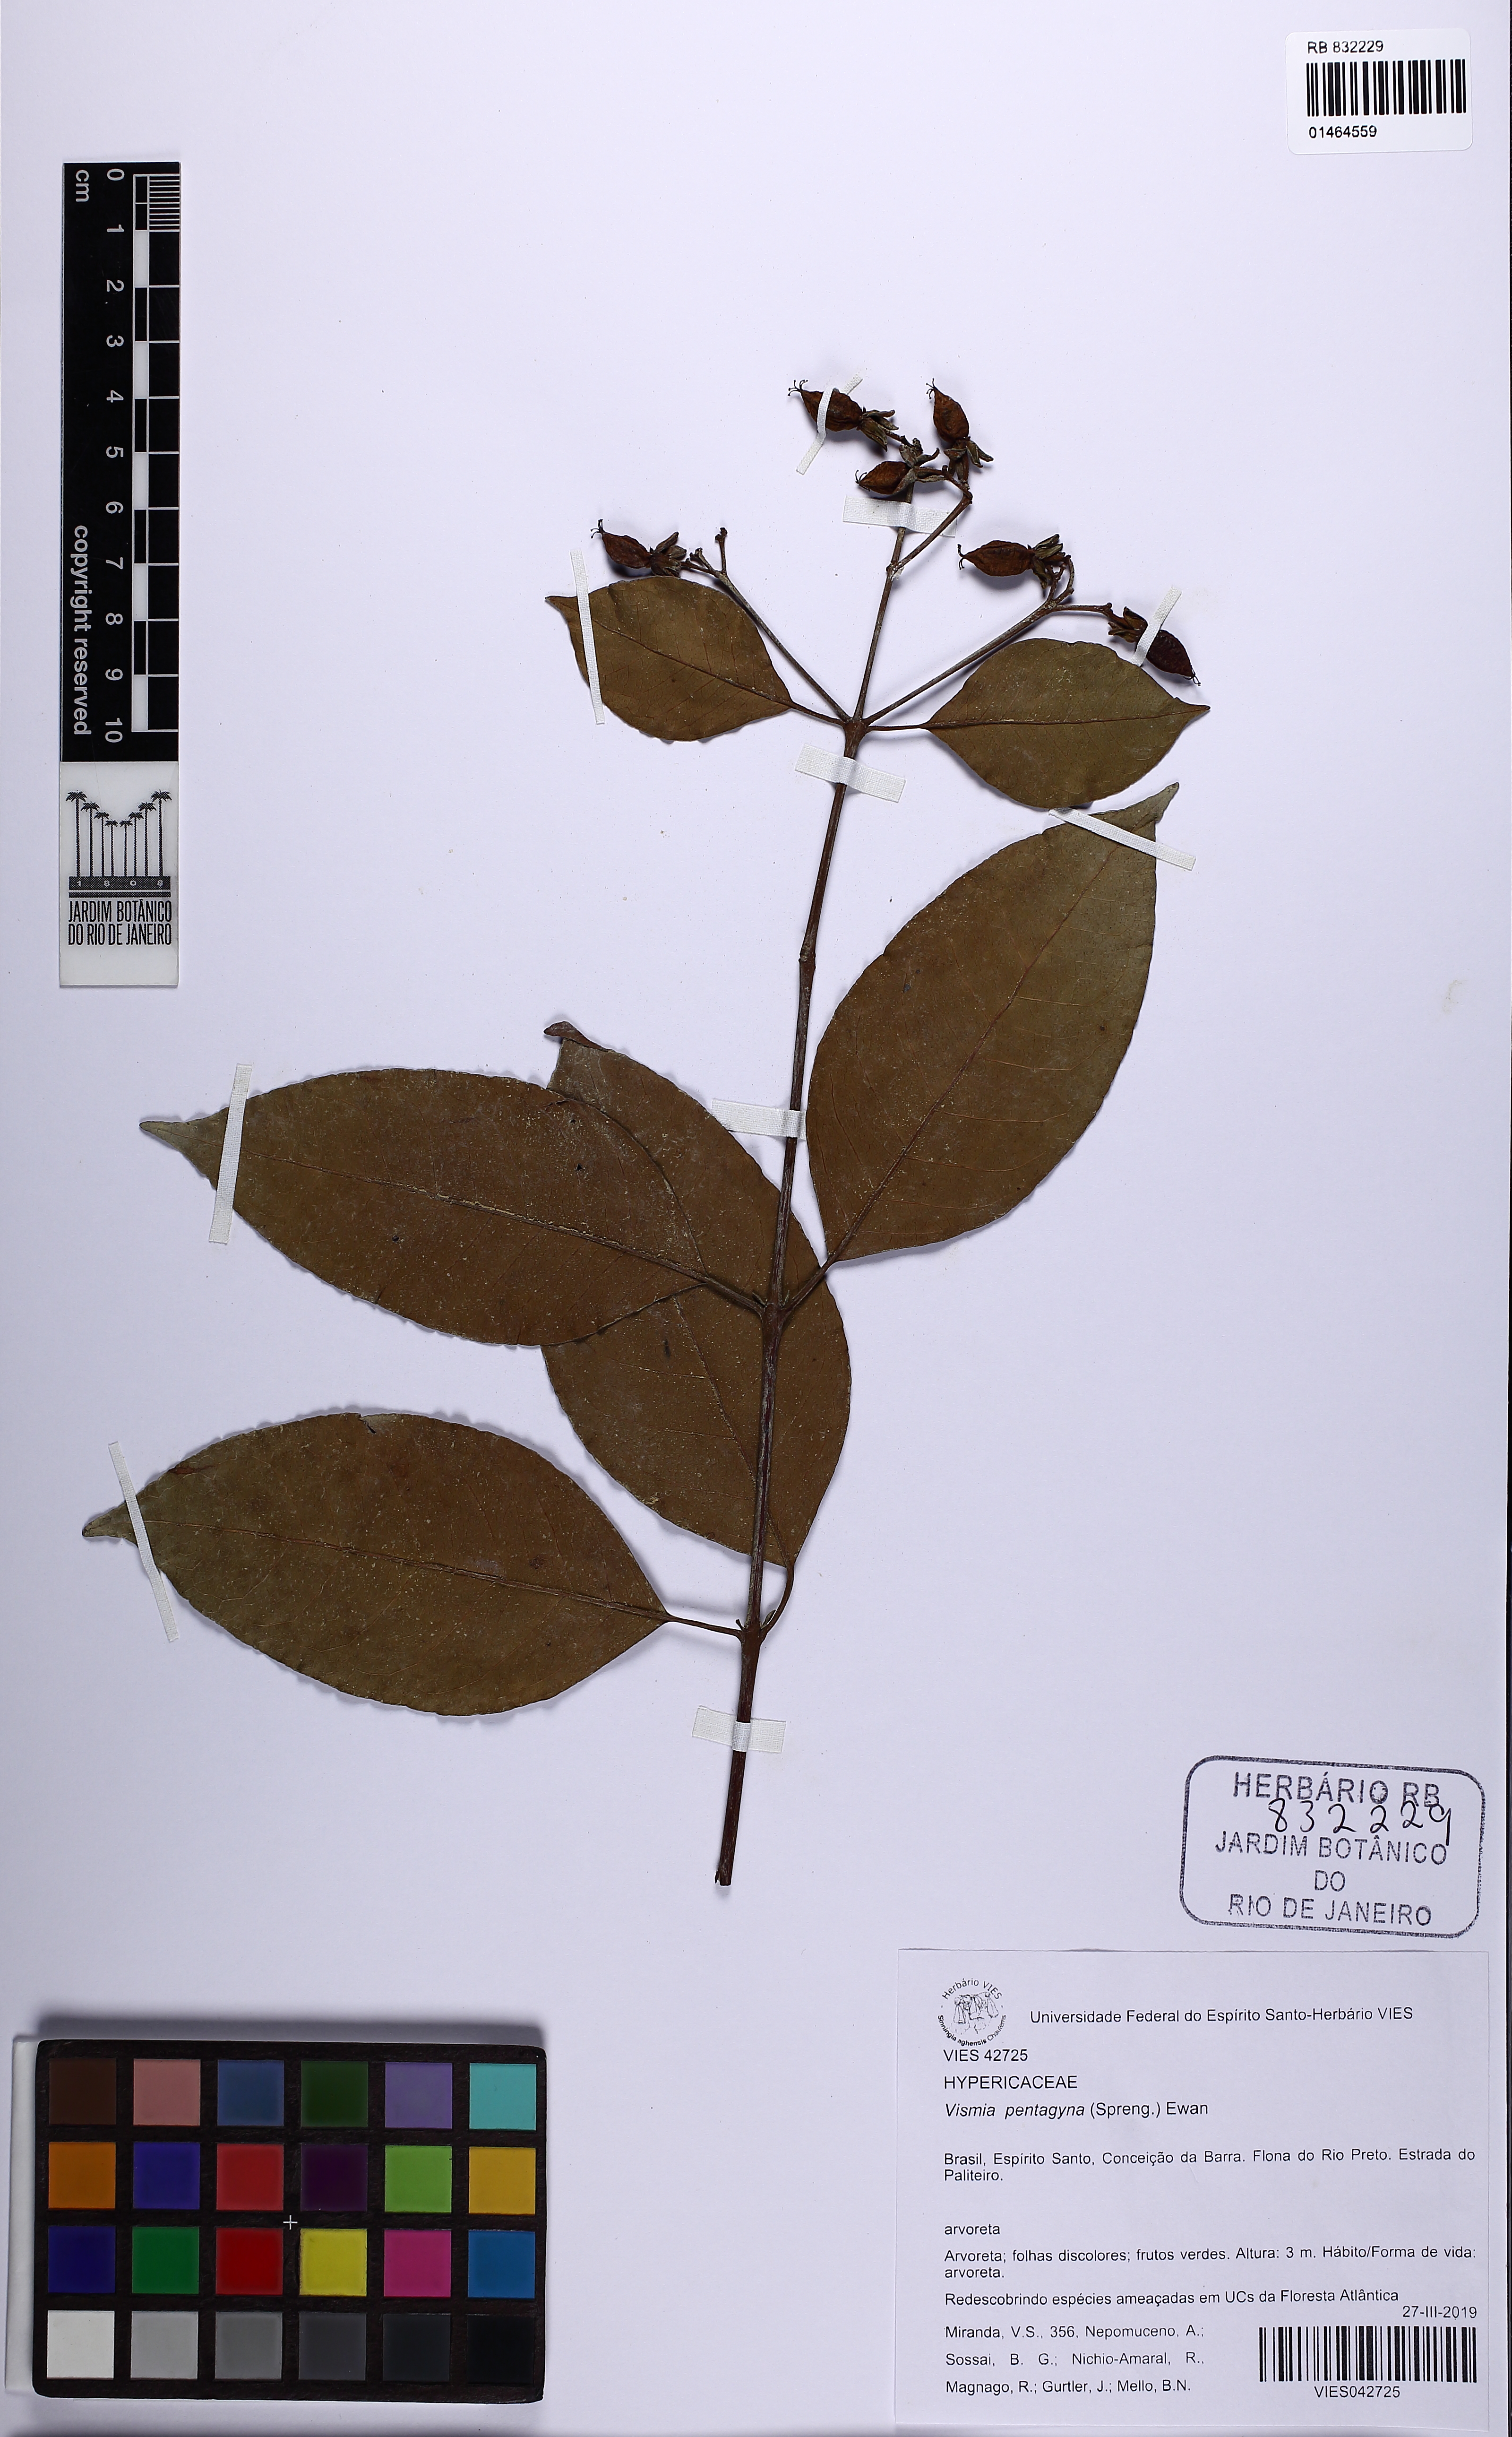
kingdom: Plantae
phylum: Tracheophyta
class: Magnoliopsida
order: Malpighiales
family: Hypericaceae
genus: Vismia
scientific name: Vismia pentagyna
